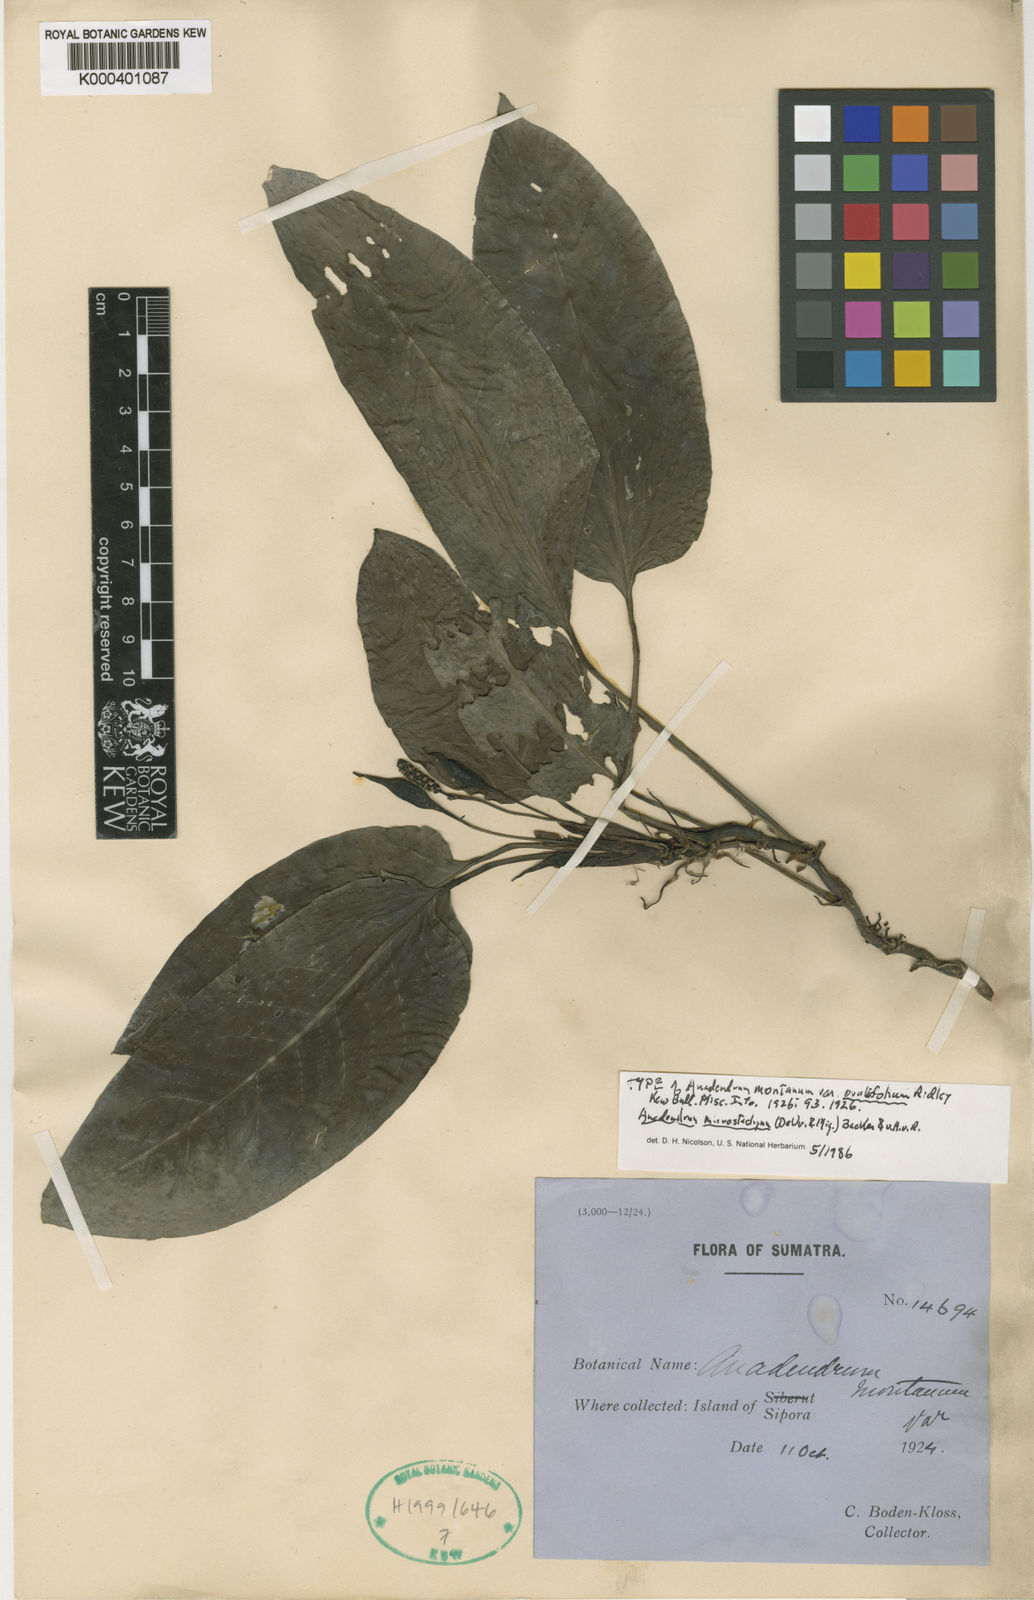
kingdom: Plantae
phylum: Tracheophyta
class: Liliopsida
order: Alismatales
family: Araceae
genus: Anadendrum
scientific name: Anadendrum microstachyum
